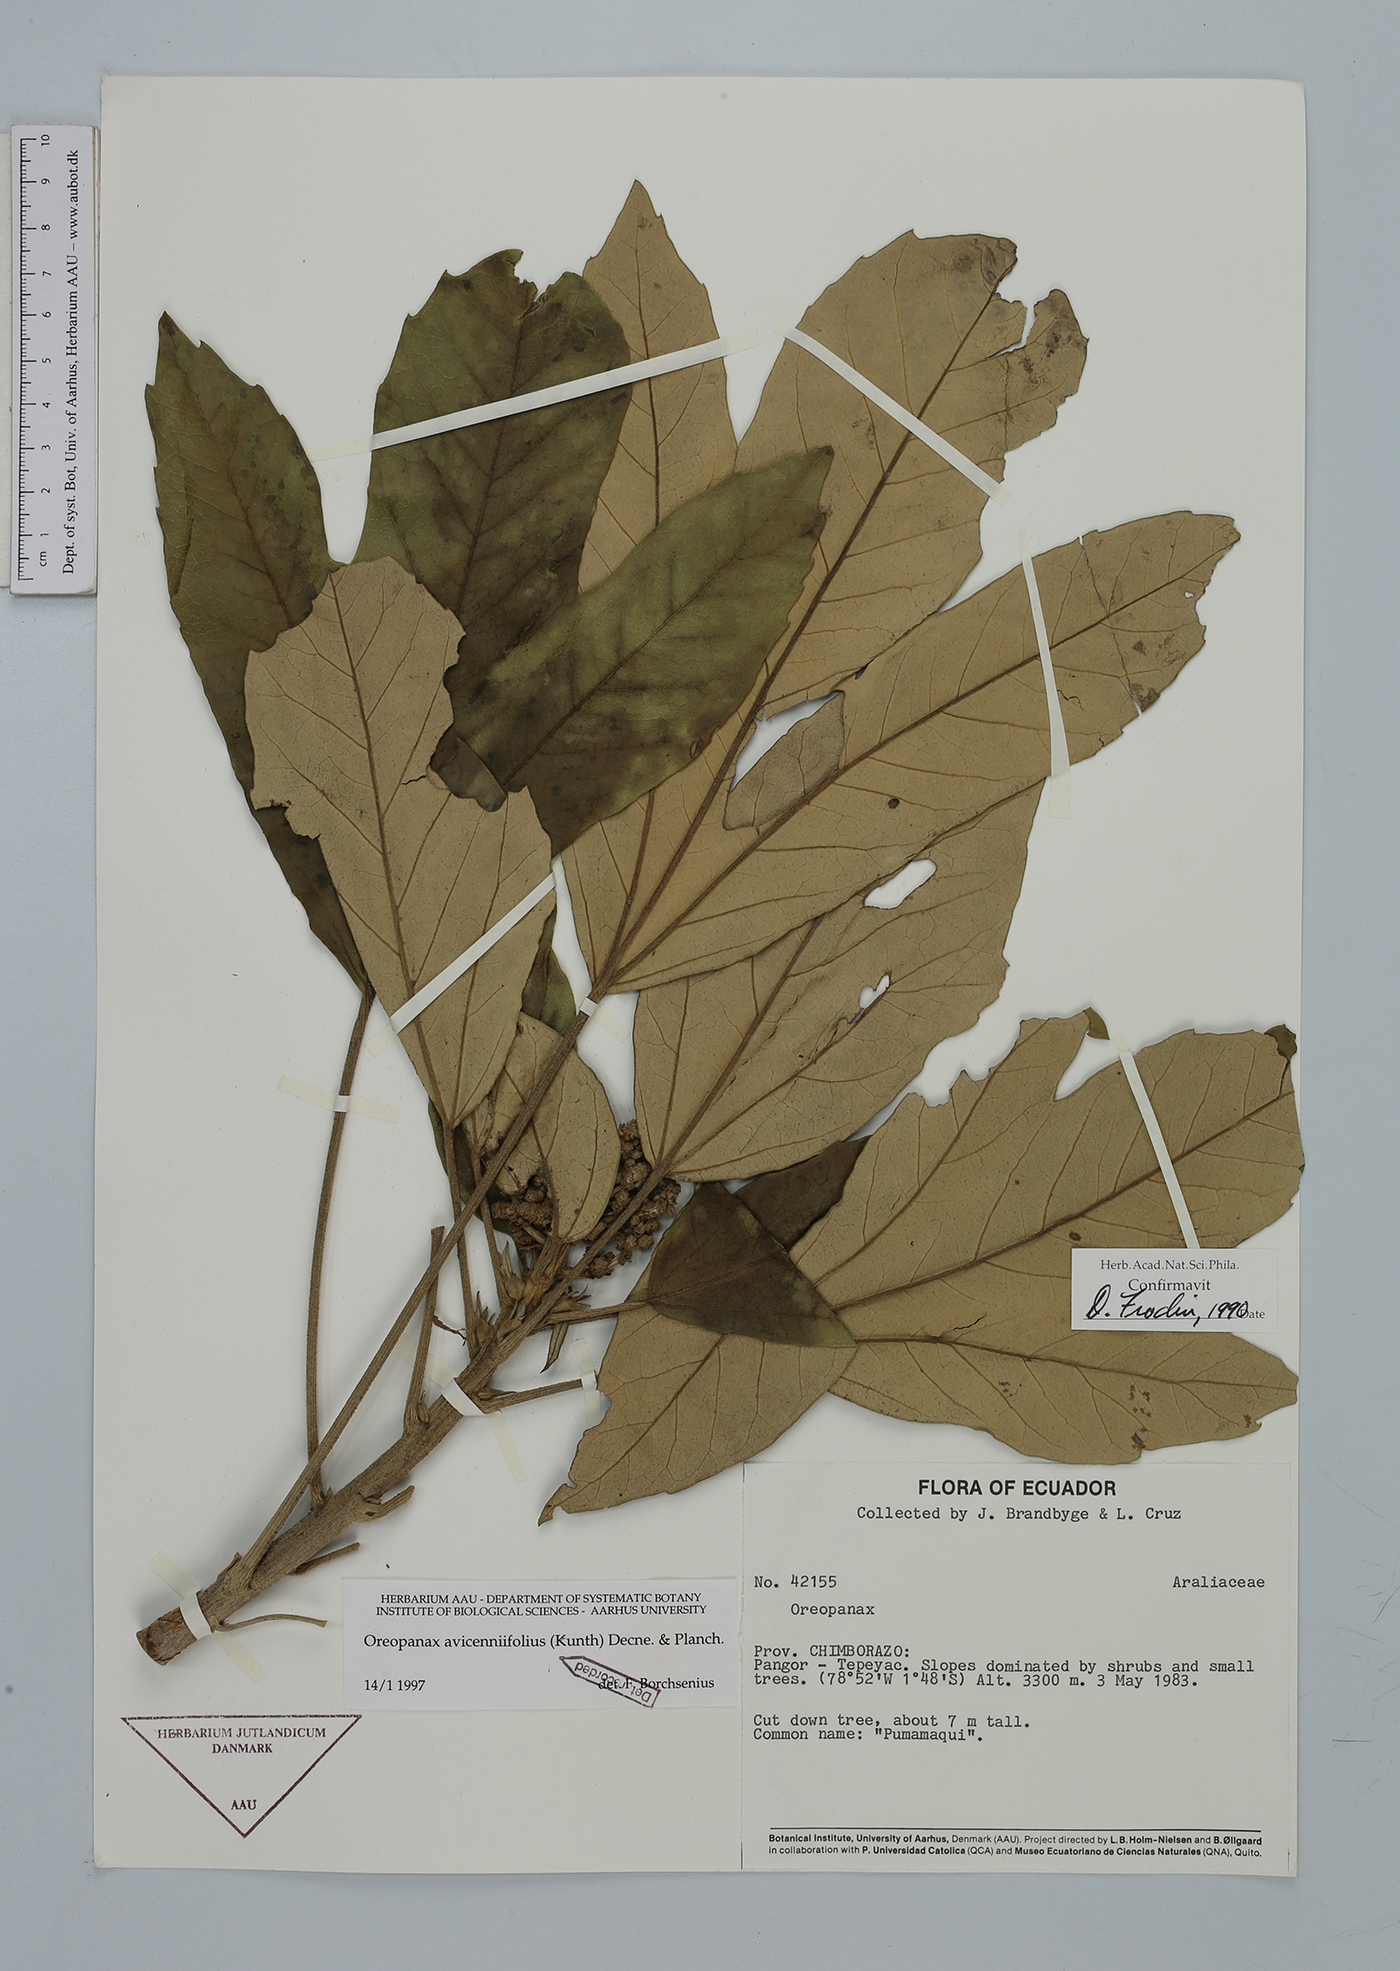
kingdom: Plantae
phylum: Tracheophyta
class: Magnoliopsida
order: Apiales
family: Araliaceae
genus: Oreopanax
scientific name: Oreopanax avicenniifolius
